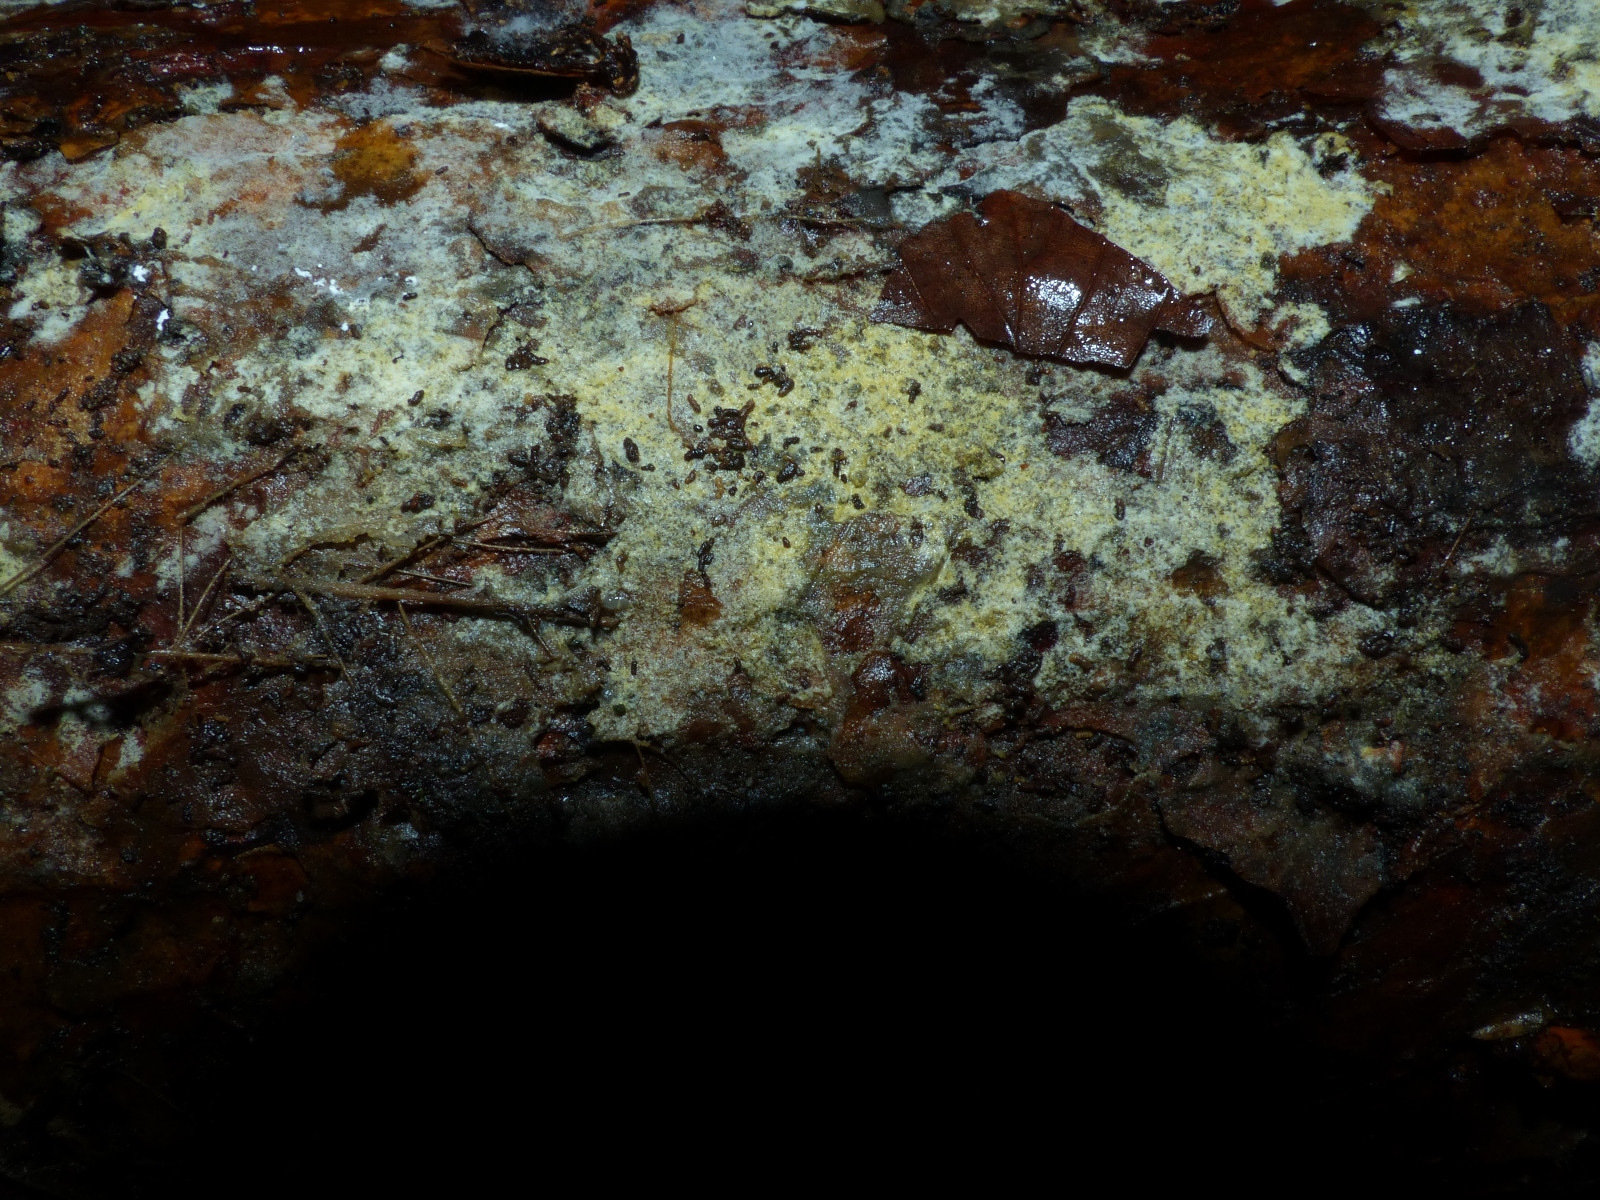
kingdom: Fungi
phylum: Basidiomycota
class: Agaricomycetes
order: Corticiales
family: Corticiaceae
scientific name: Corticiaceae
